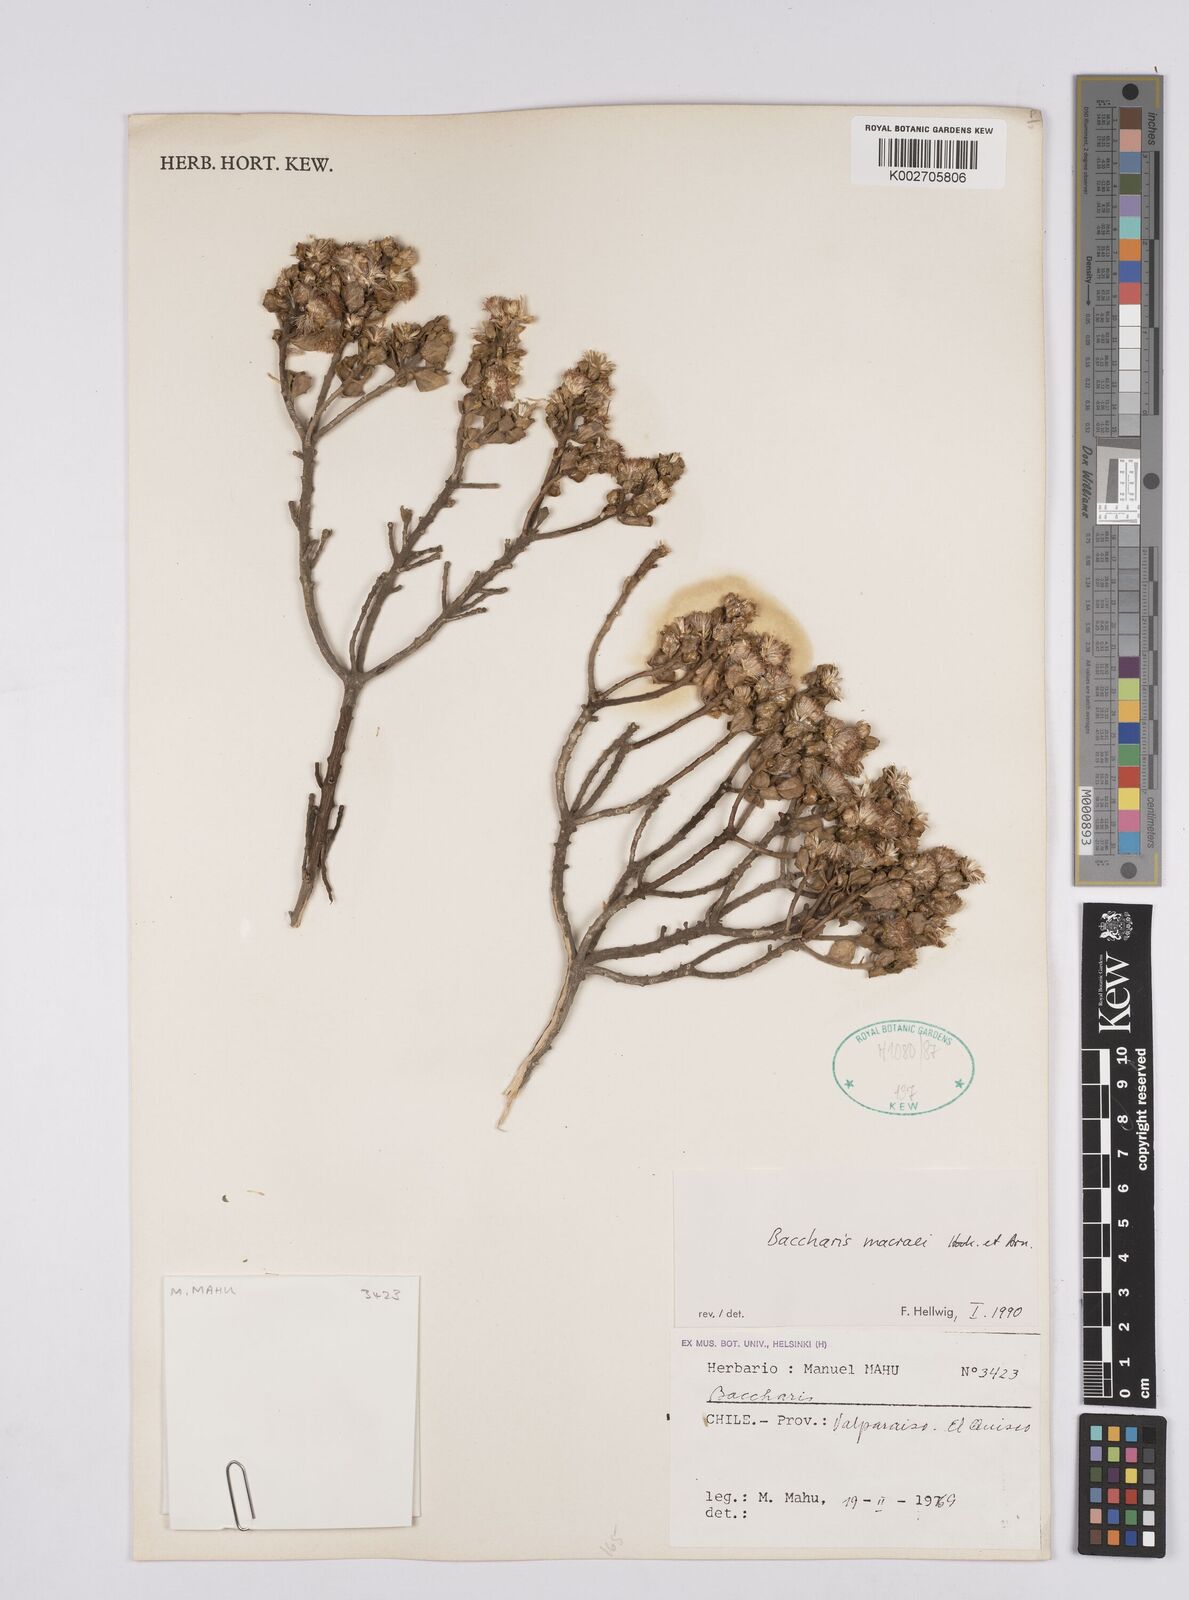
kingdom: Plantae
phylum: Tracheophyta
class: Magnoliopsida
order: Asterales
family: Asteraceae
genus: Baccharis
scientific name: Baccharis macraei
